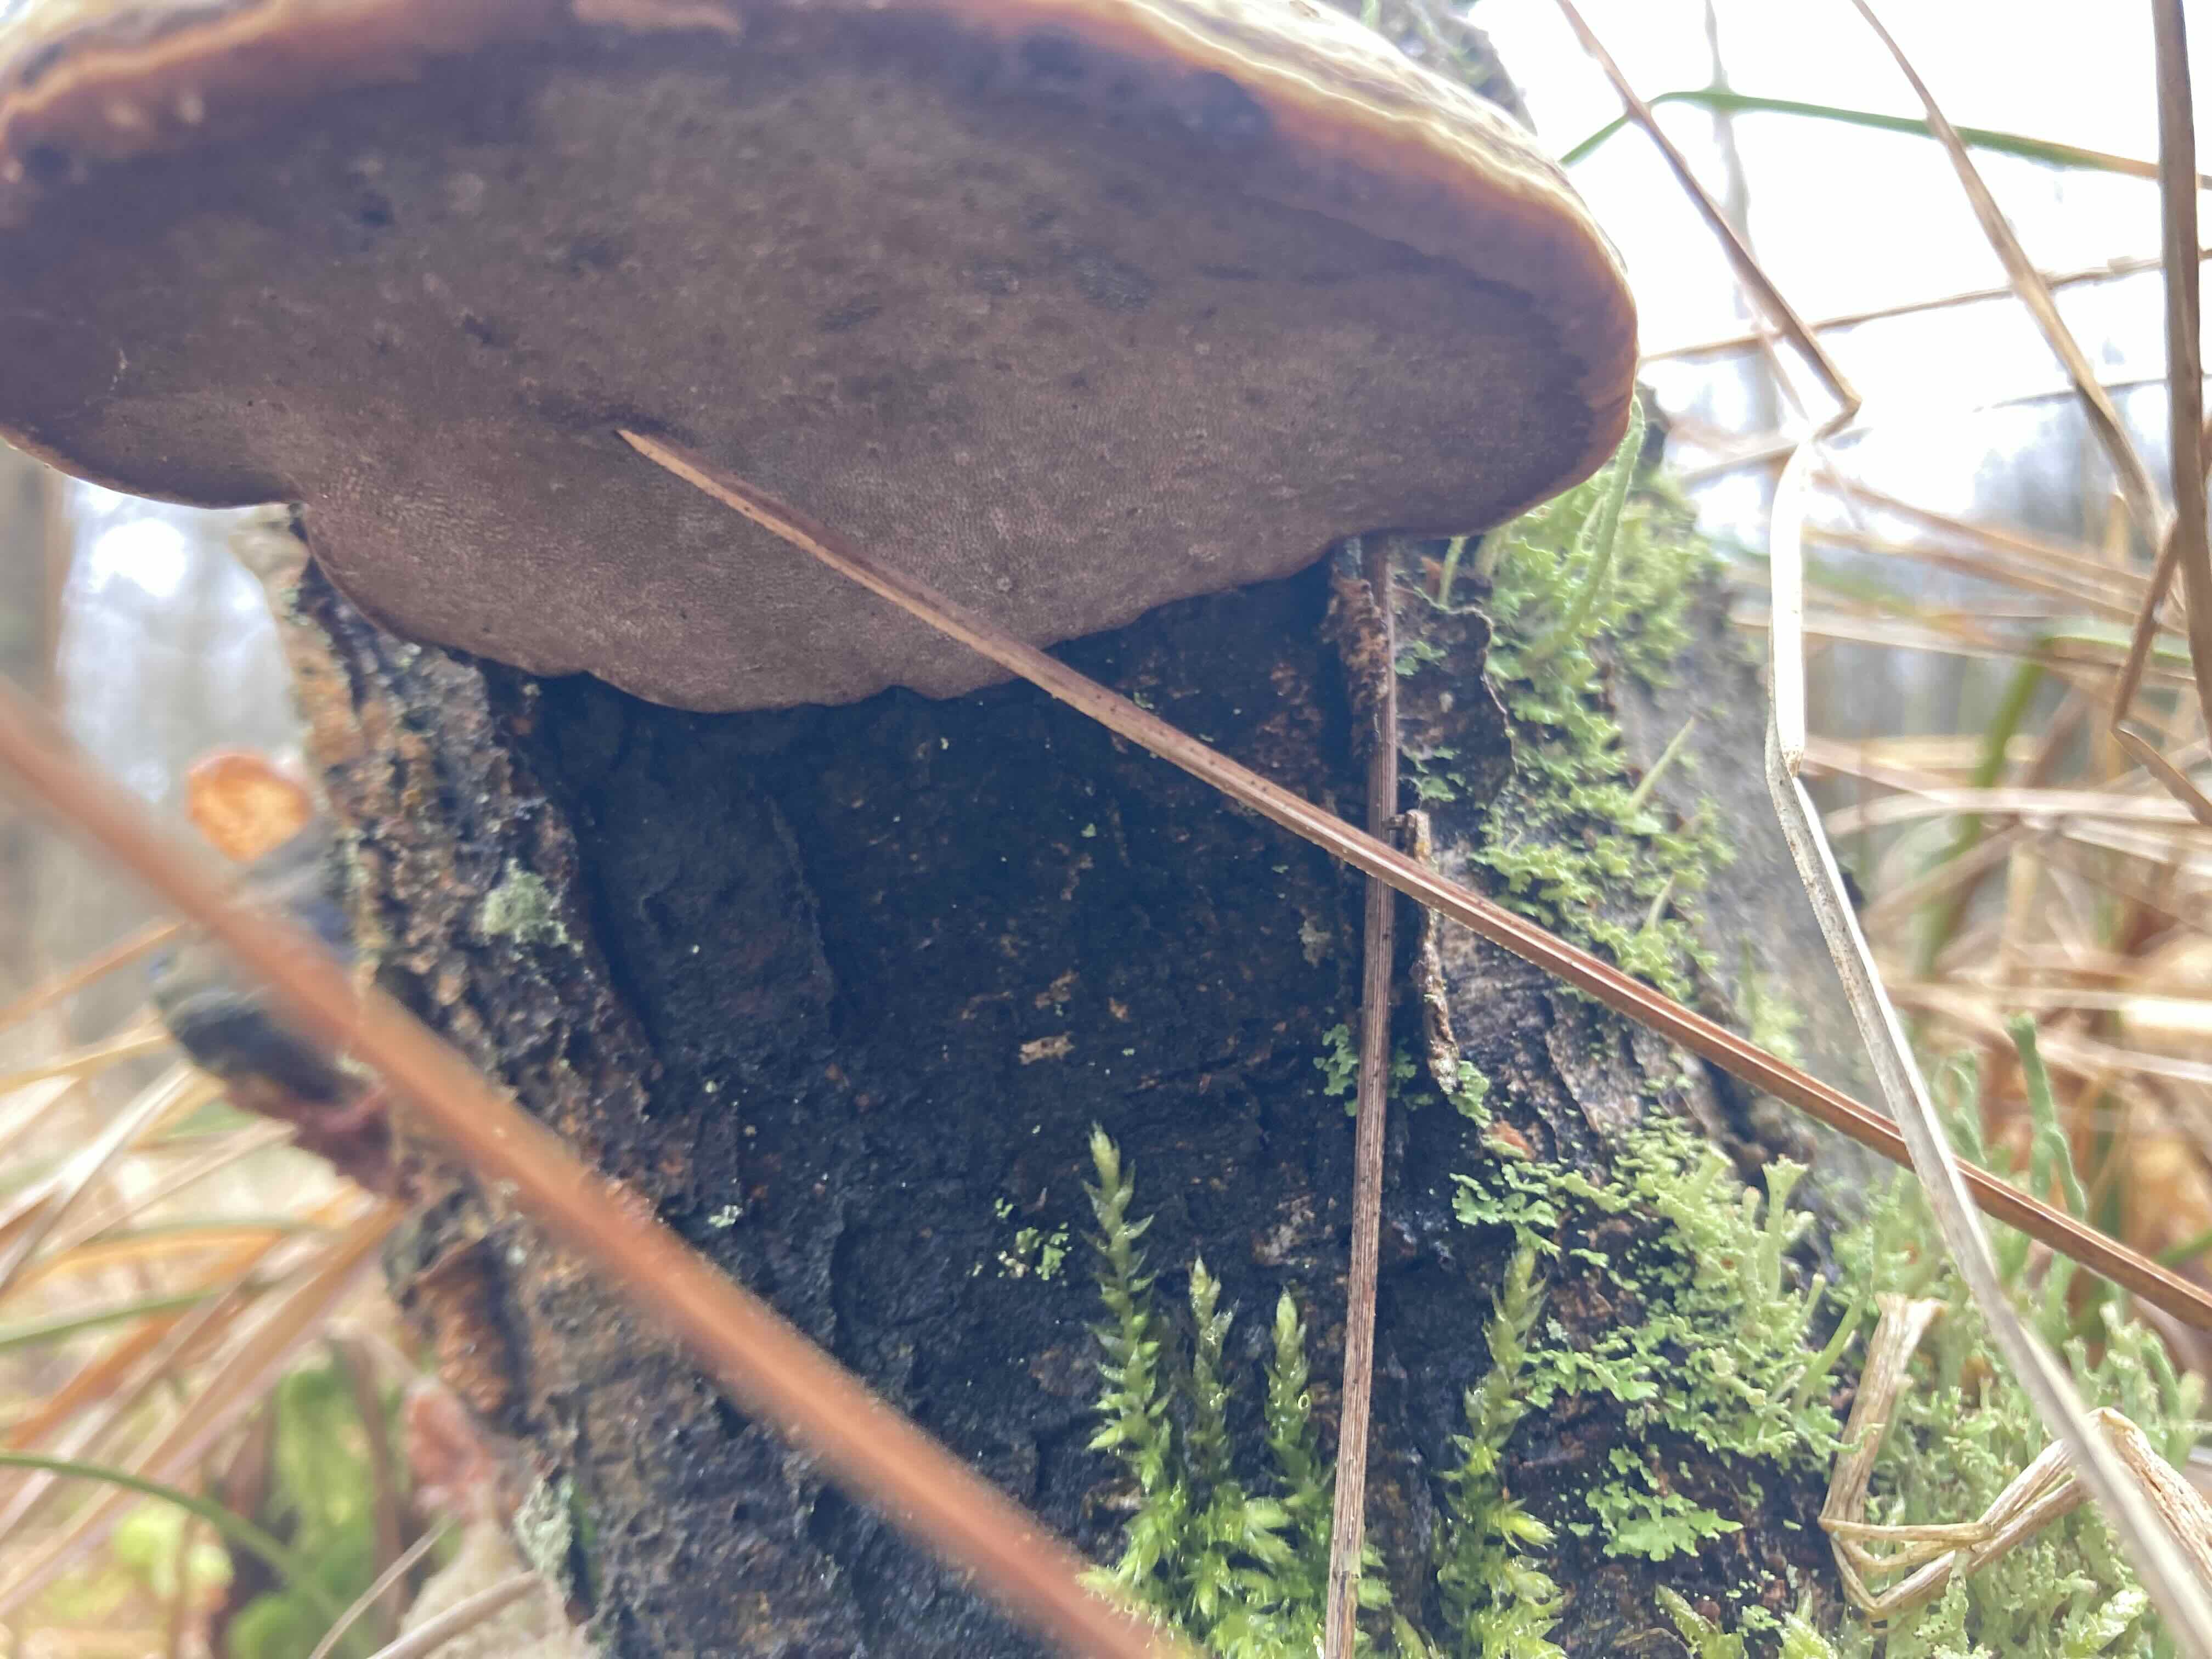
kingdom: Fungi
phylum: Basidiomycota
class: Agaricomycetes
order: Polyporales
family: Polyporaceae
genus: Fomes
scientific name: Fomes fomentarius
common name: tøndersvamp
